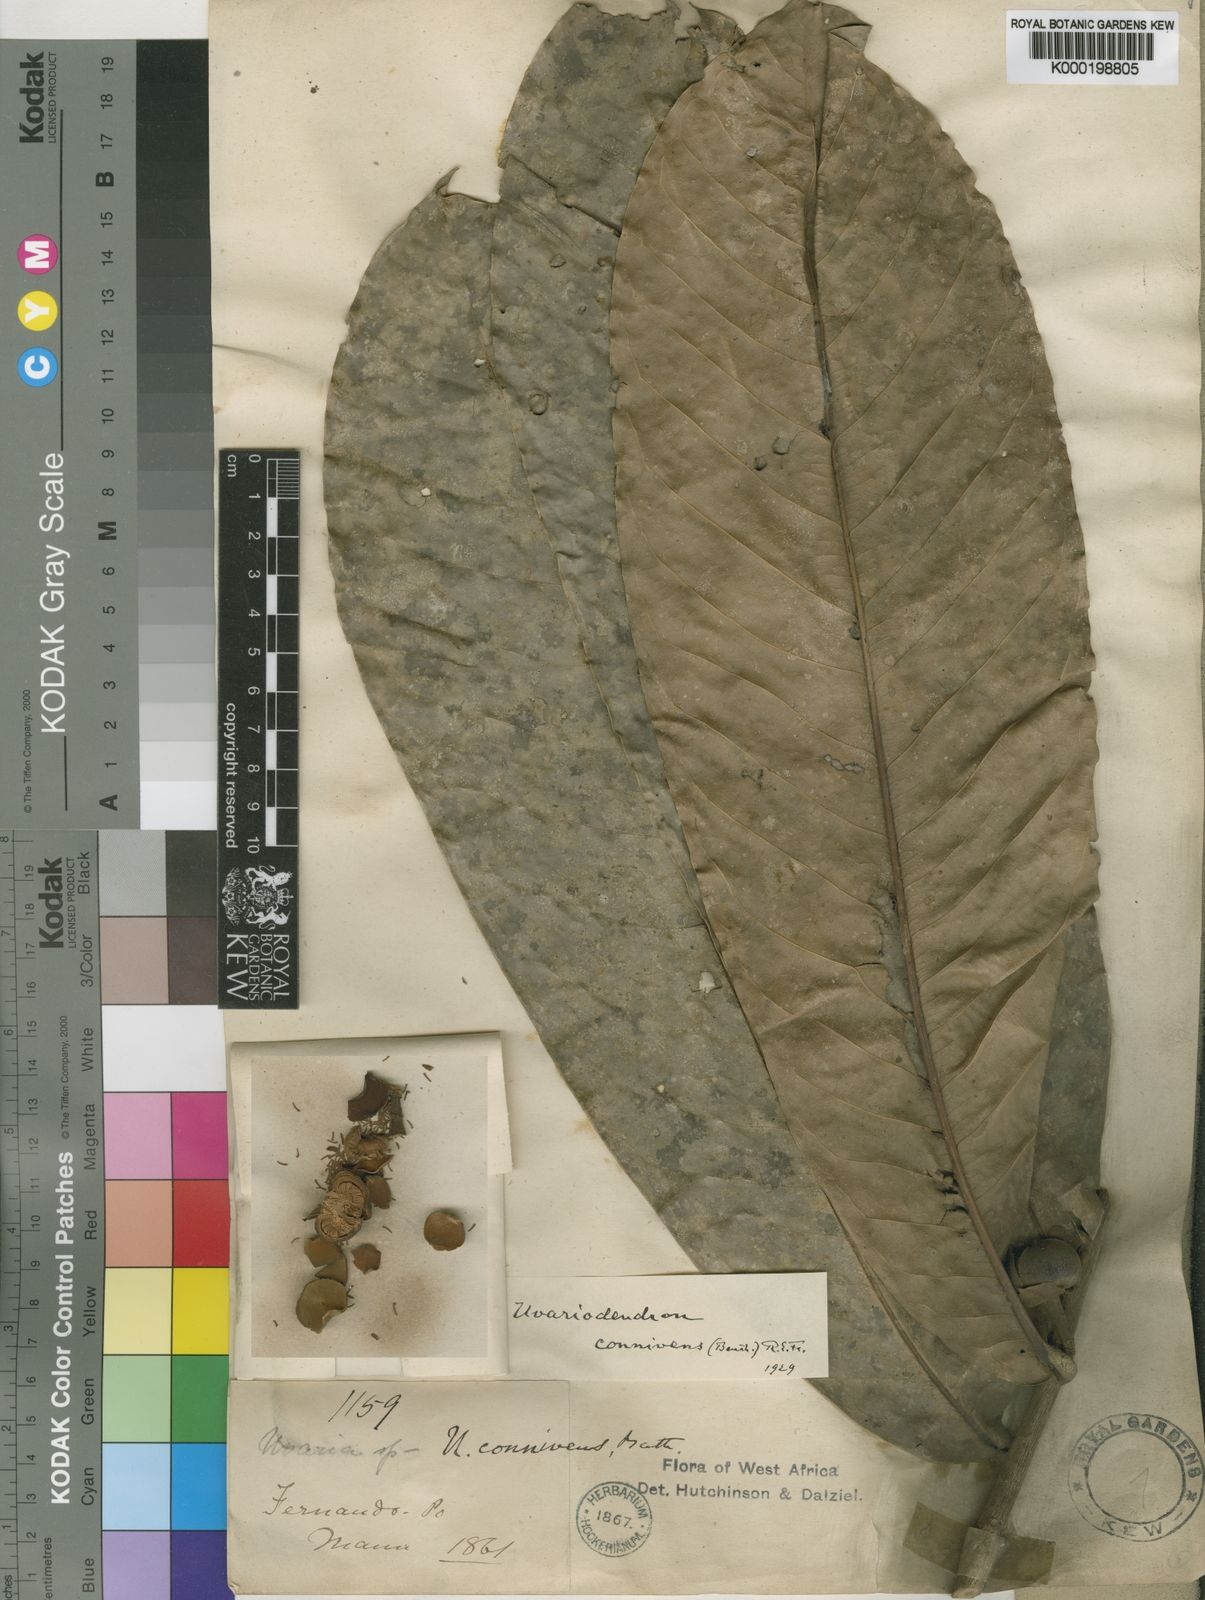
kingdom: Plantae
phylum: Tracheophyta
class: Magnoliopsida
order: Magnoliales
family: Annonaceae
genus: Uvariodendron
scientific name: Uvariodendron connivens
